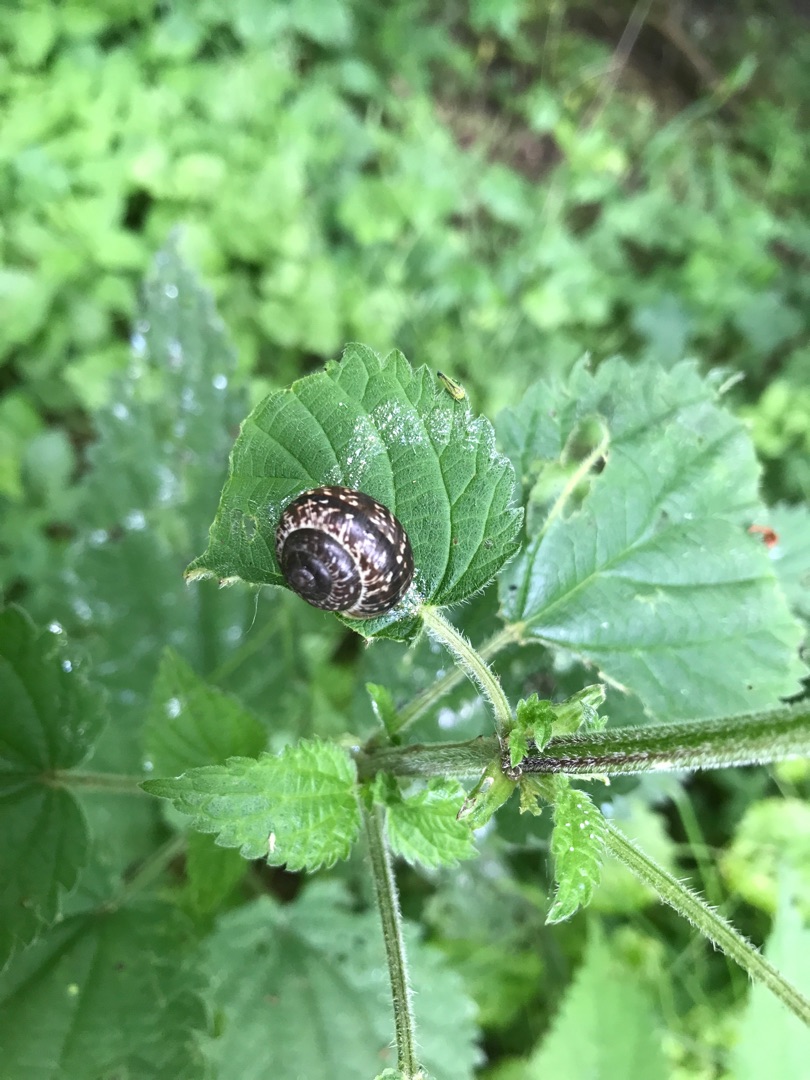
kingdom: Animalia
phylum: Mollusca
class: Gastropoda
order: Stylommatophora
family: Helicidae
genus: Arianta
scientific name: Arianta arbustorum
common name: Kratsnegl
